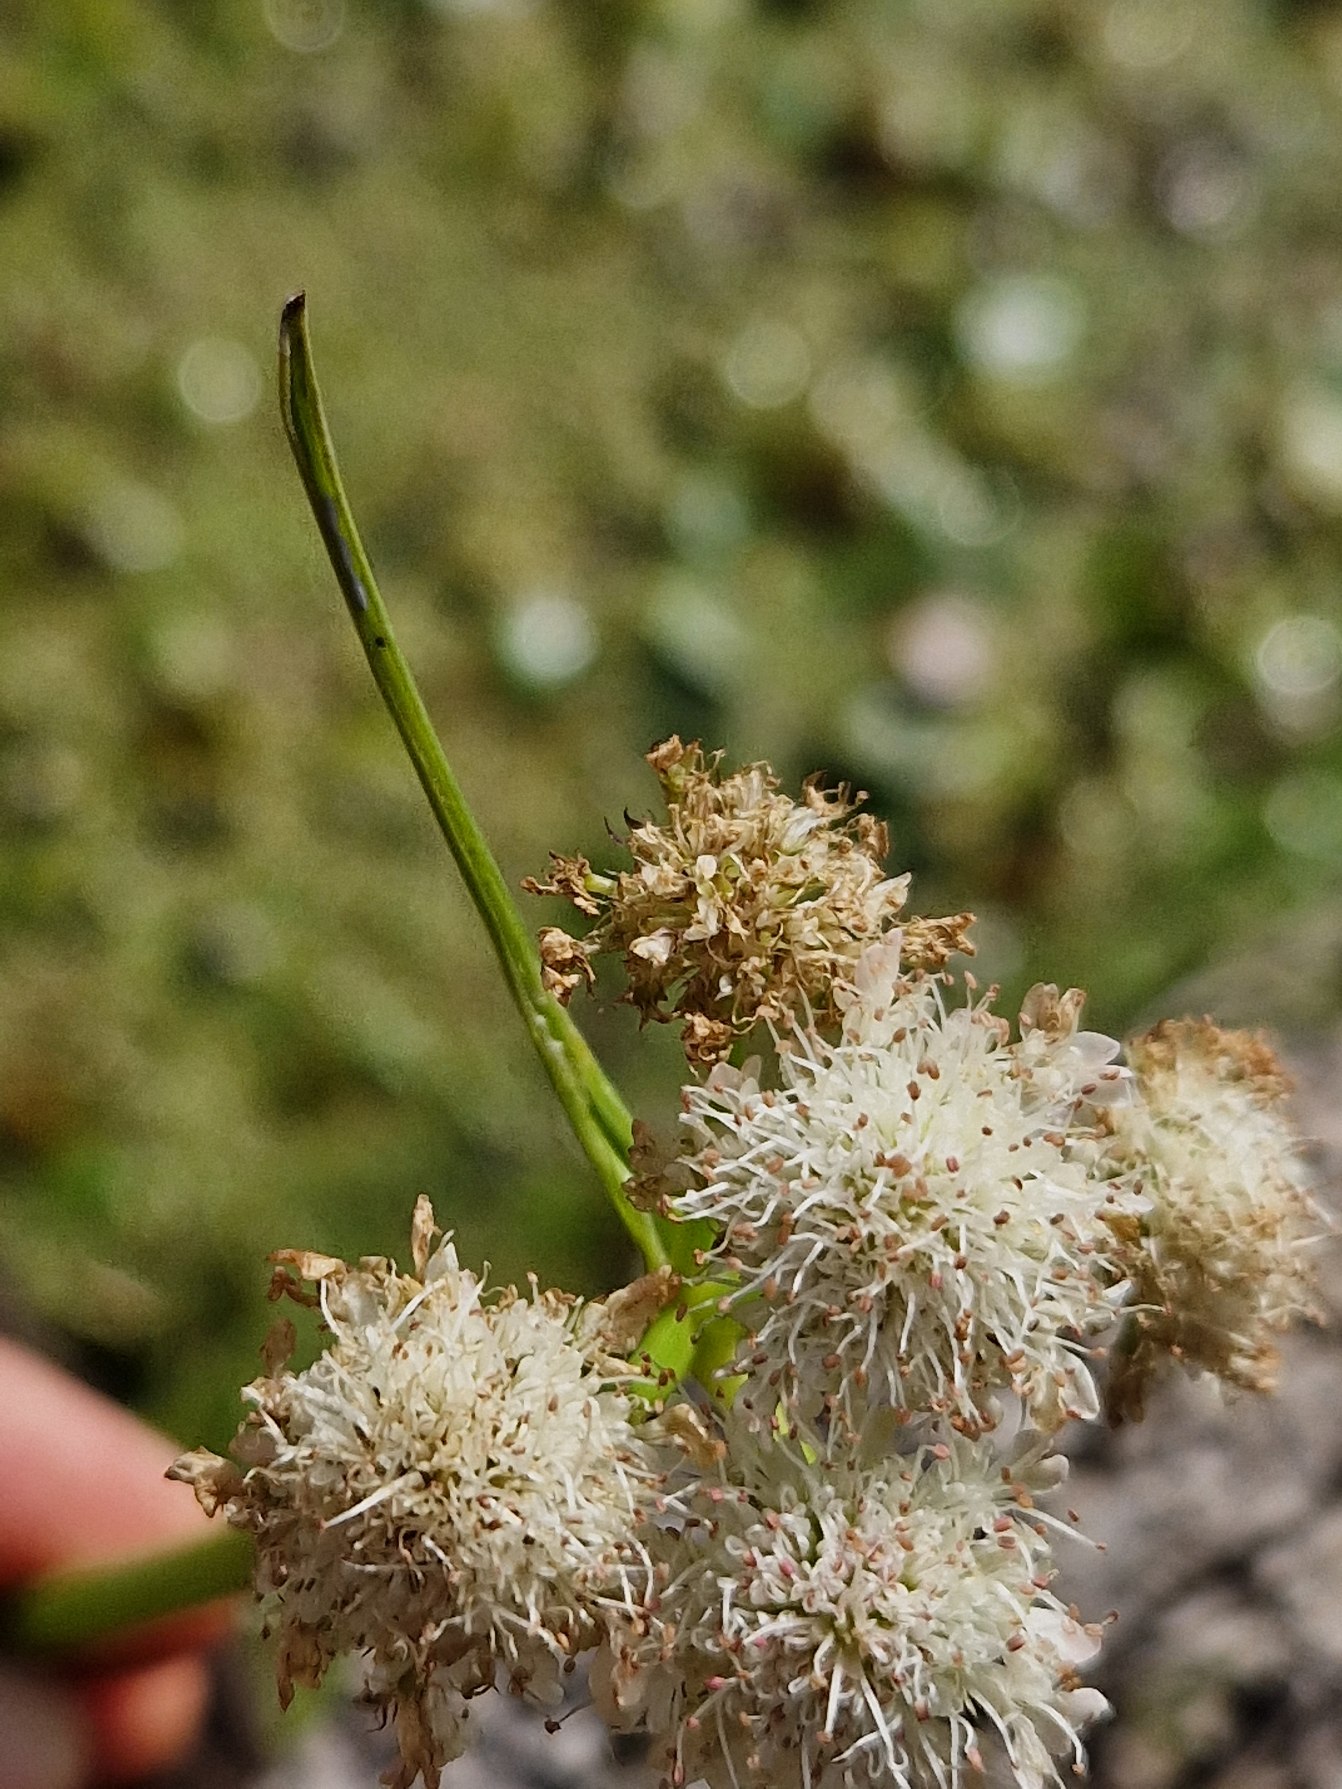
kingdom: Plantae
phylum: Tracheophyta
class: Magnoliopsida
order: Apiales
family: Apiaceae
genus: Oenanthe
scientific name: Oenanthe fistulosa
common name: Vand-klaseskærm
